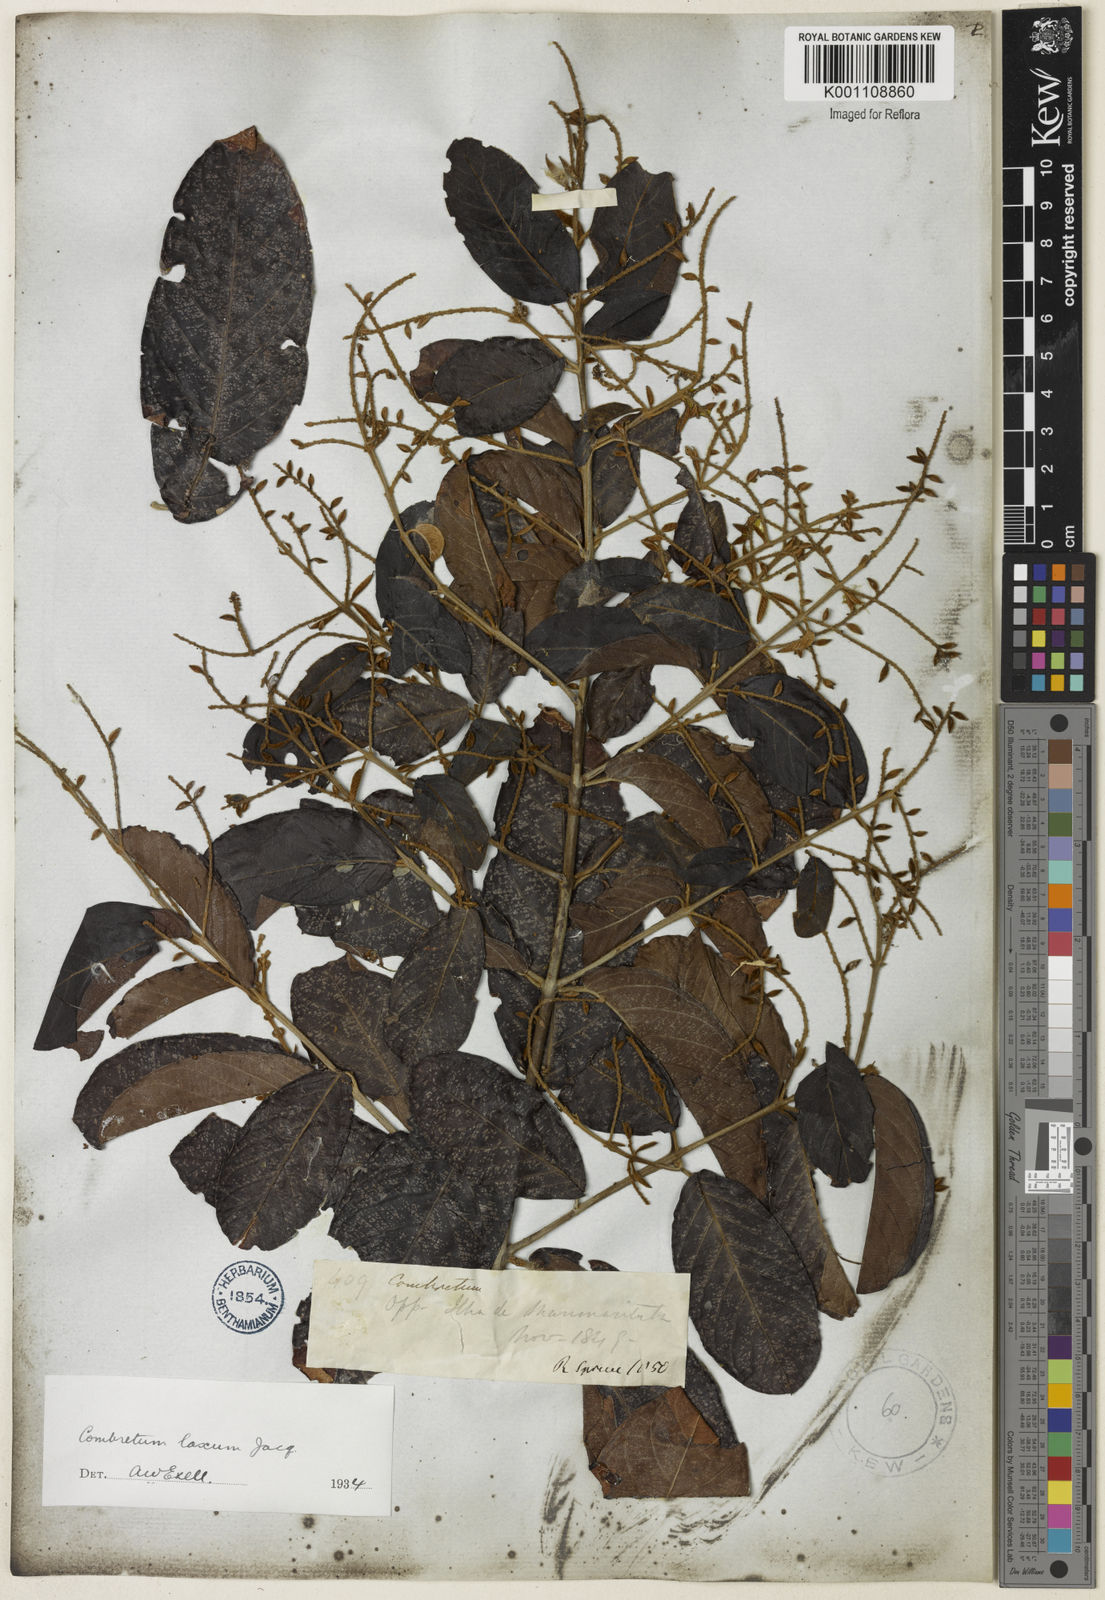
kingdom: Plantae
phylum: Tracheophyta
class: Magnoliopsida
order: Myrtales
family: Combretaceae
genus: Combretum
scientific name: Combretum laxum
